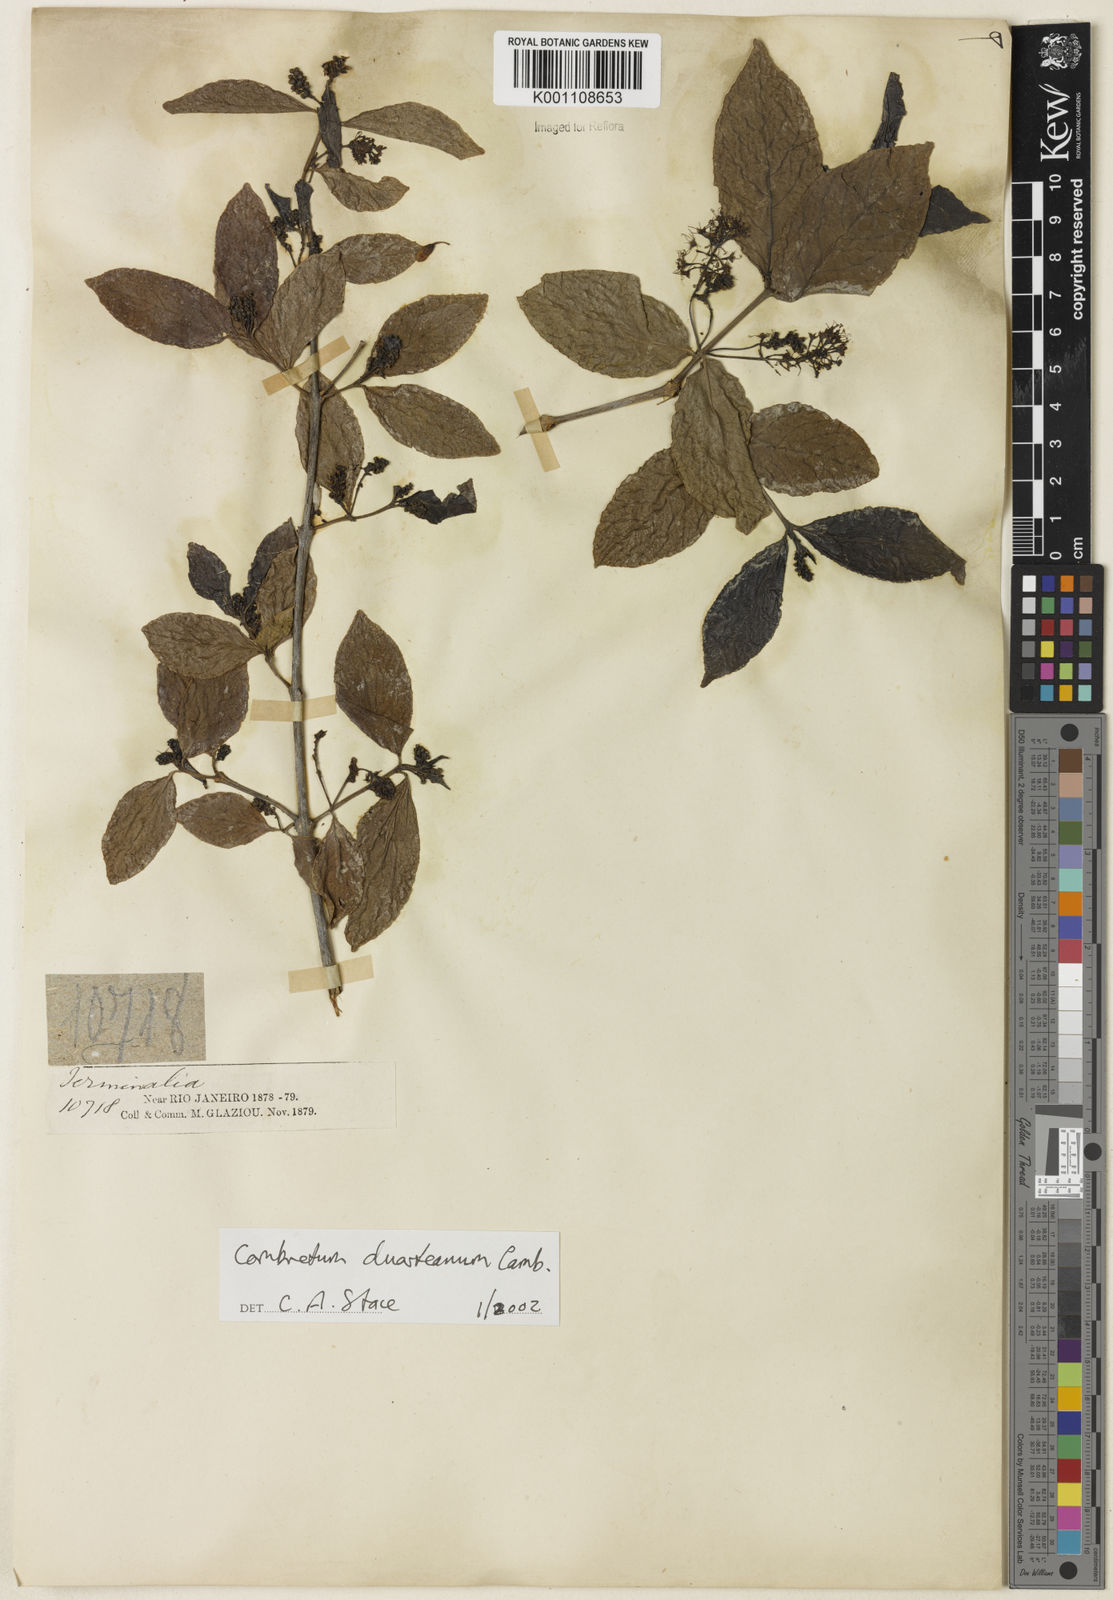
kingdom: Plantae
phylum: Tracheophyta
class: Magnoliopsida
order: Myrtales
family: Combretaceae
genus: Combretum
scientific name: Combretum duarteanum
